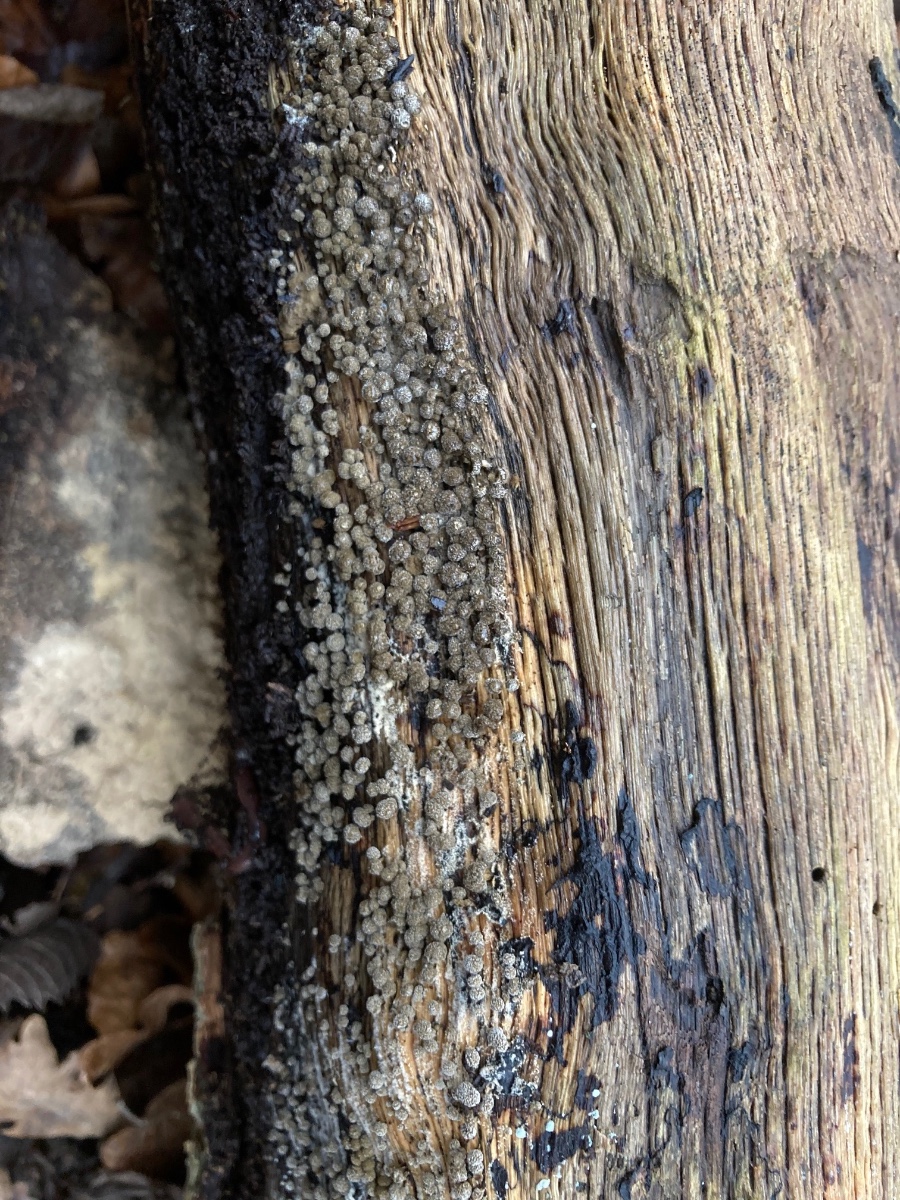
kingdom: Fungi
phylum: Basidiomycota
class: Atractiellomycetes
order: Atractiellales
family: Phleogenaceae
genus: Phleogena
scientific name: Phleogena faginea
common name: pudderkølle
